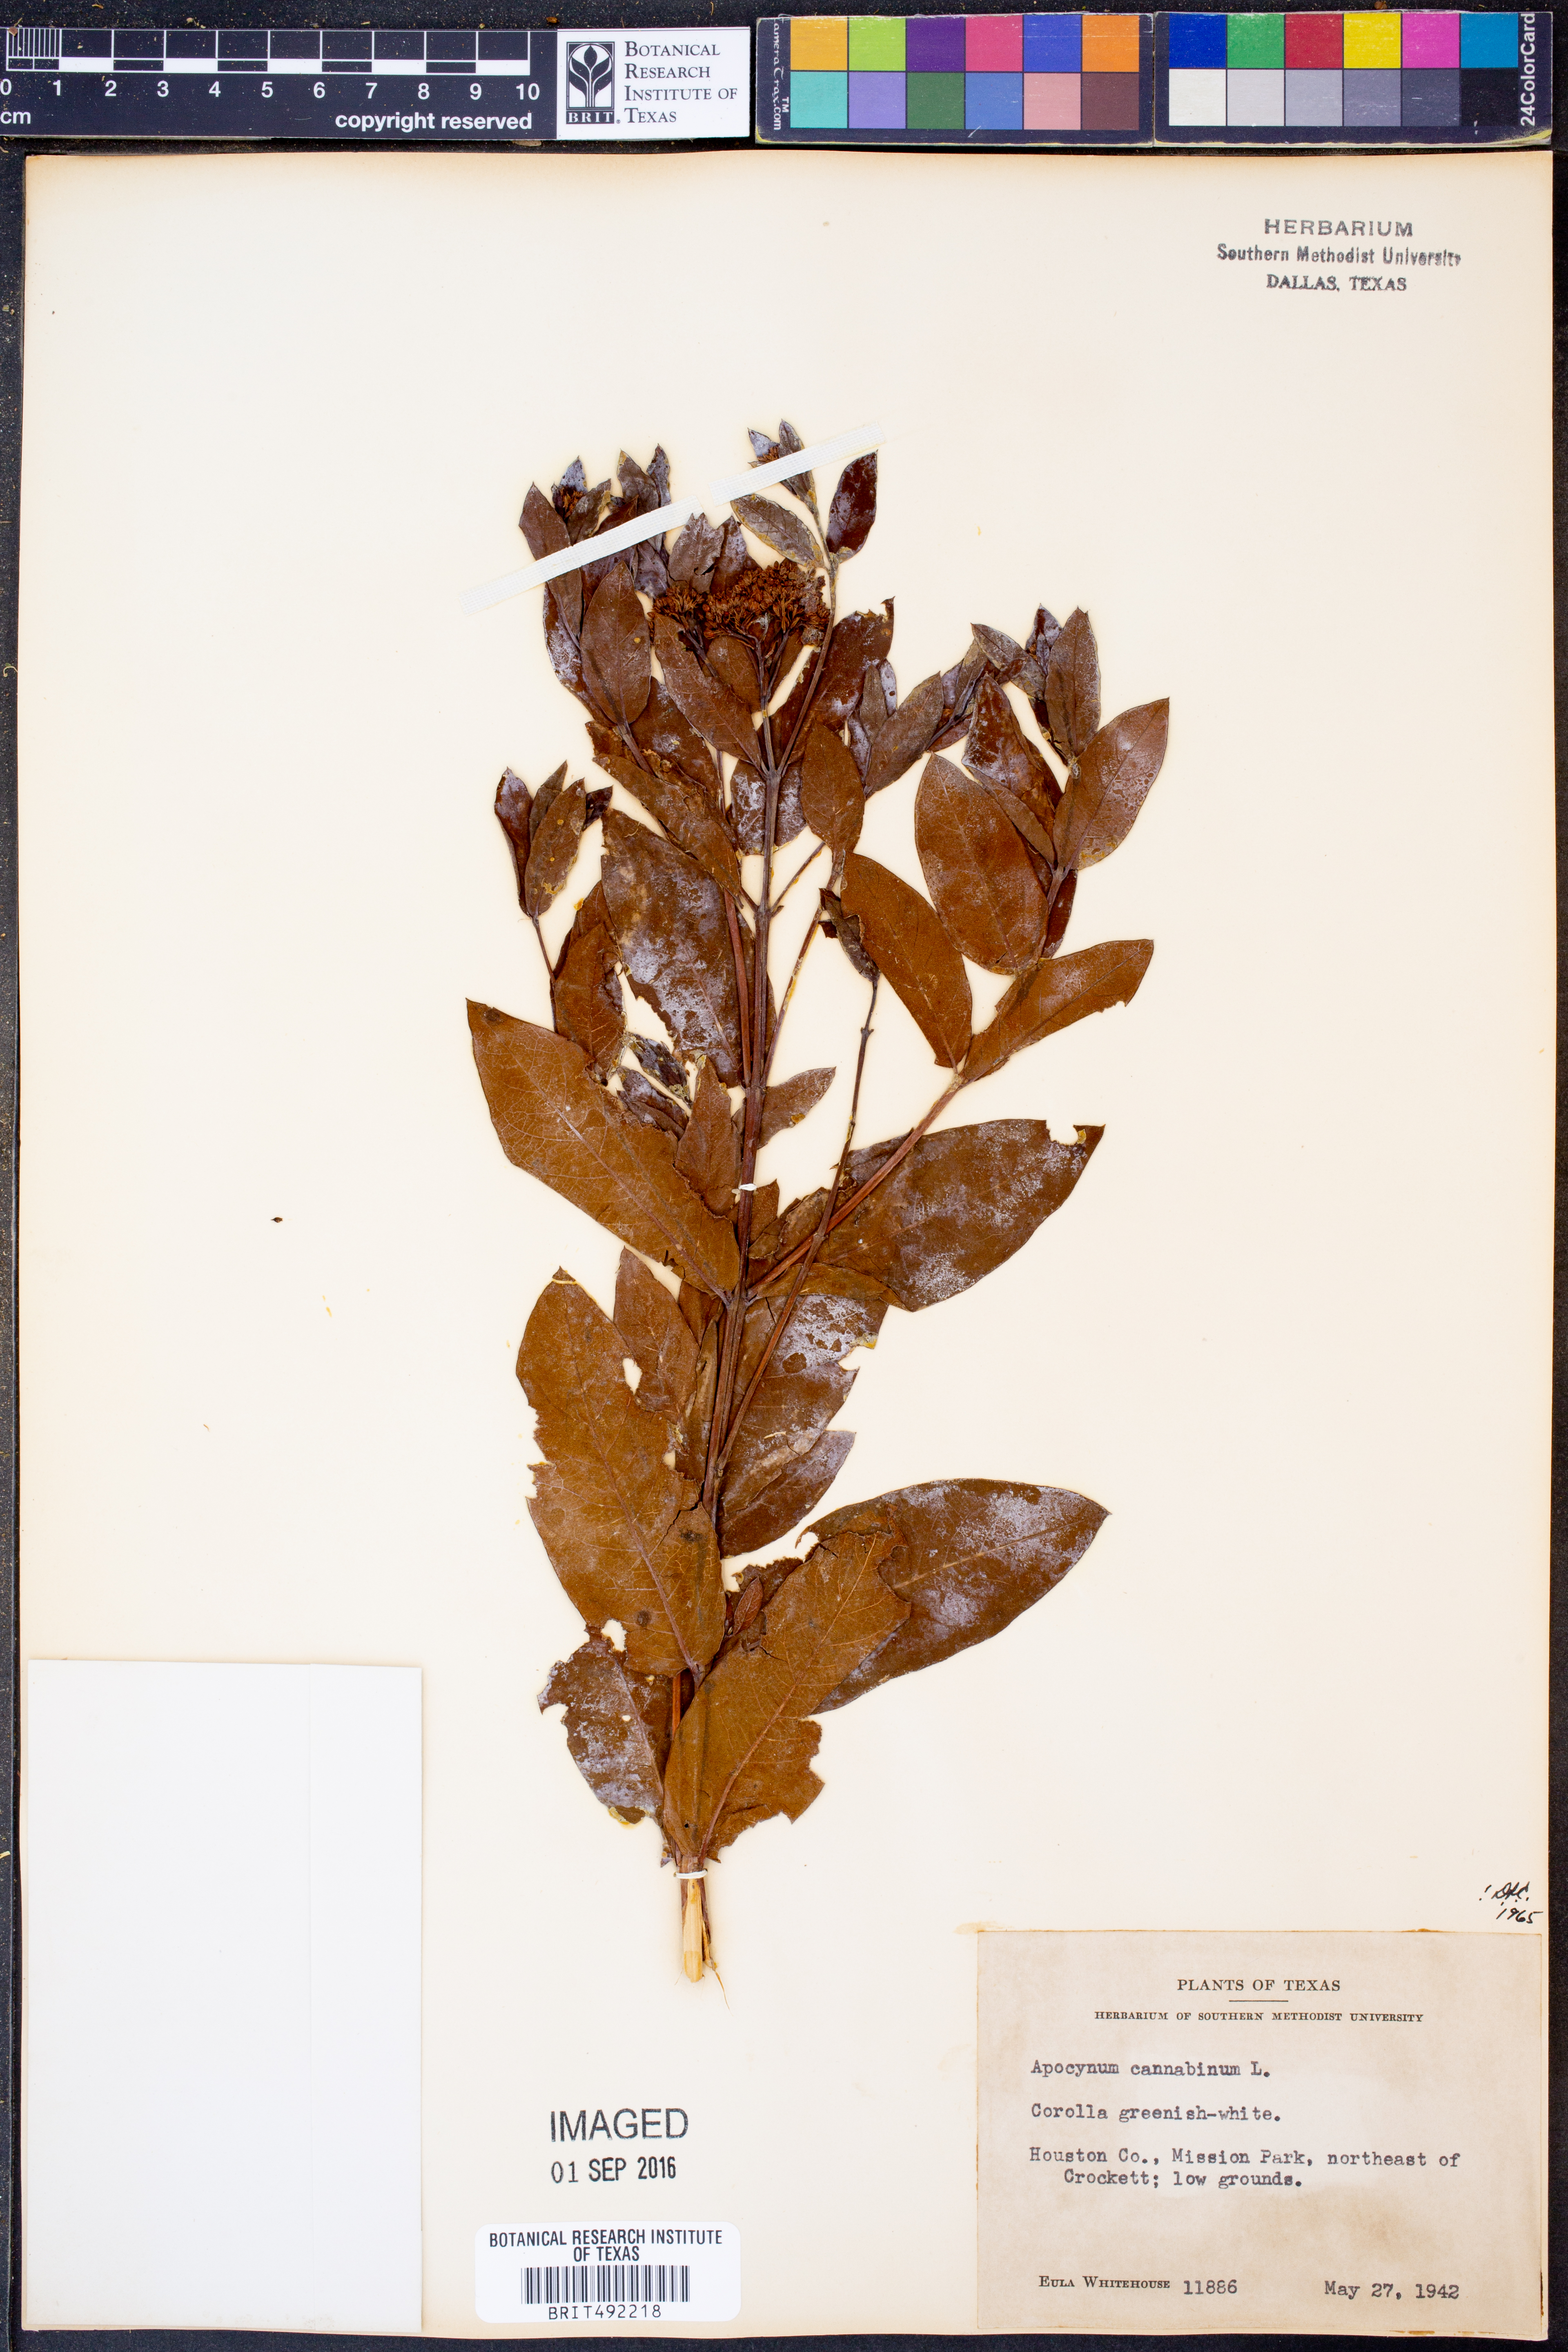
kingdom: Plantae
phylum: Tracheophyta
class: Magnoliopsida
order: Gentianales
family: Apocynaceae
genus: Apocynum
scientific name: Apocynum cannabinum
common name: Hemp dogbane
